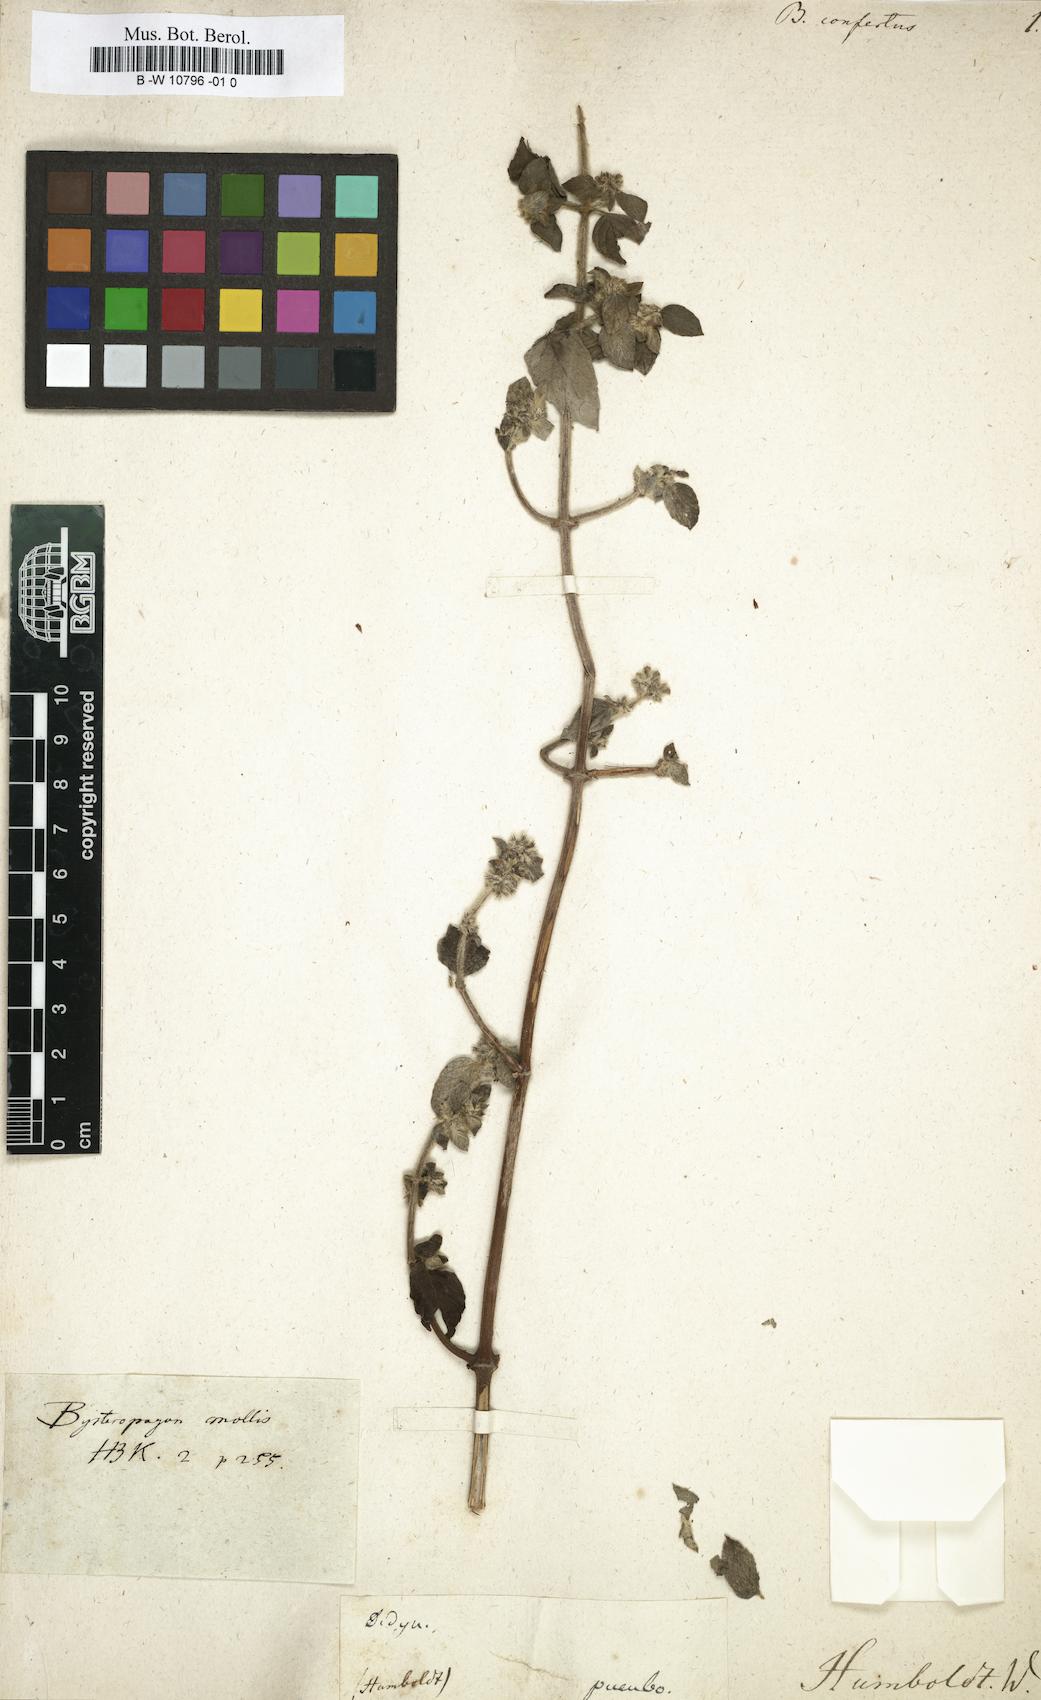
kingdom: Plantae
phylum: Tracheophyta
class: Magnoliopsida
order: Lamiales
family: Lamiaceae
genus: Minthostachys
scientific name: Minthostachys mollis
